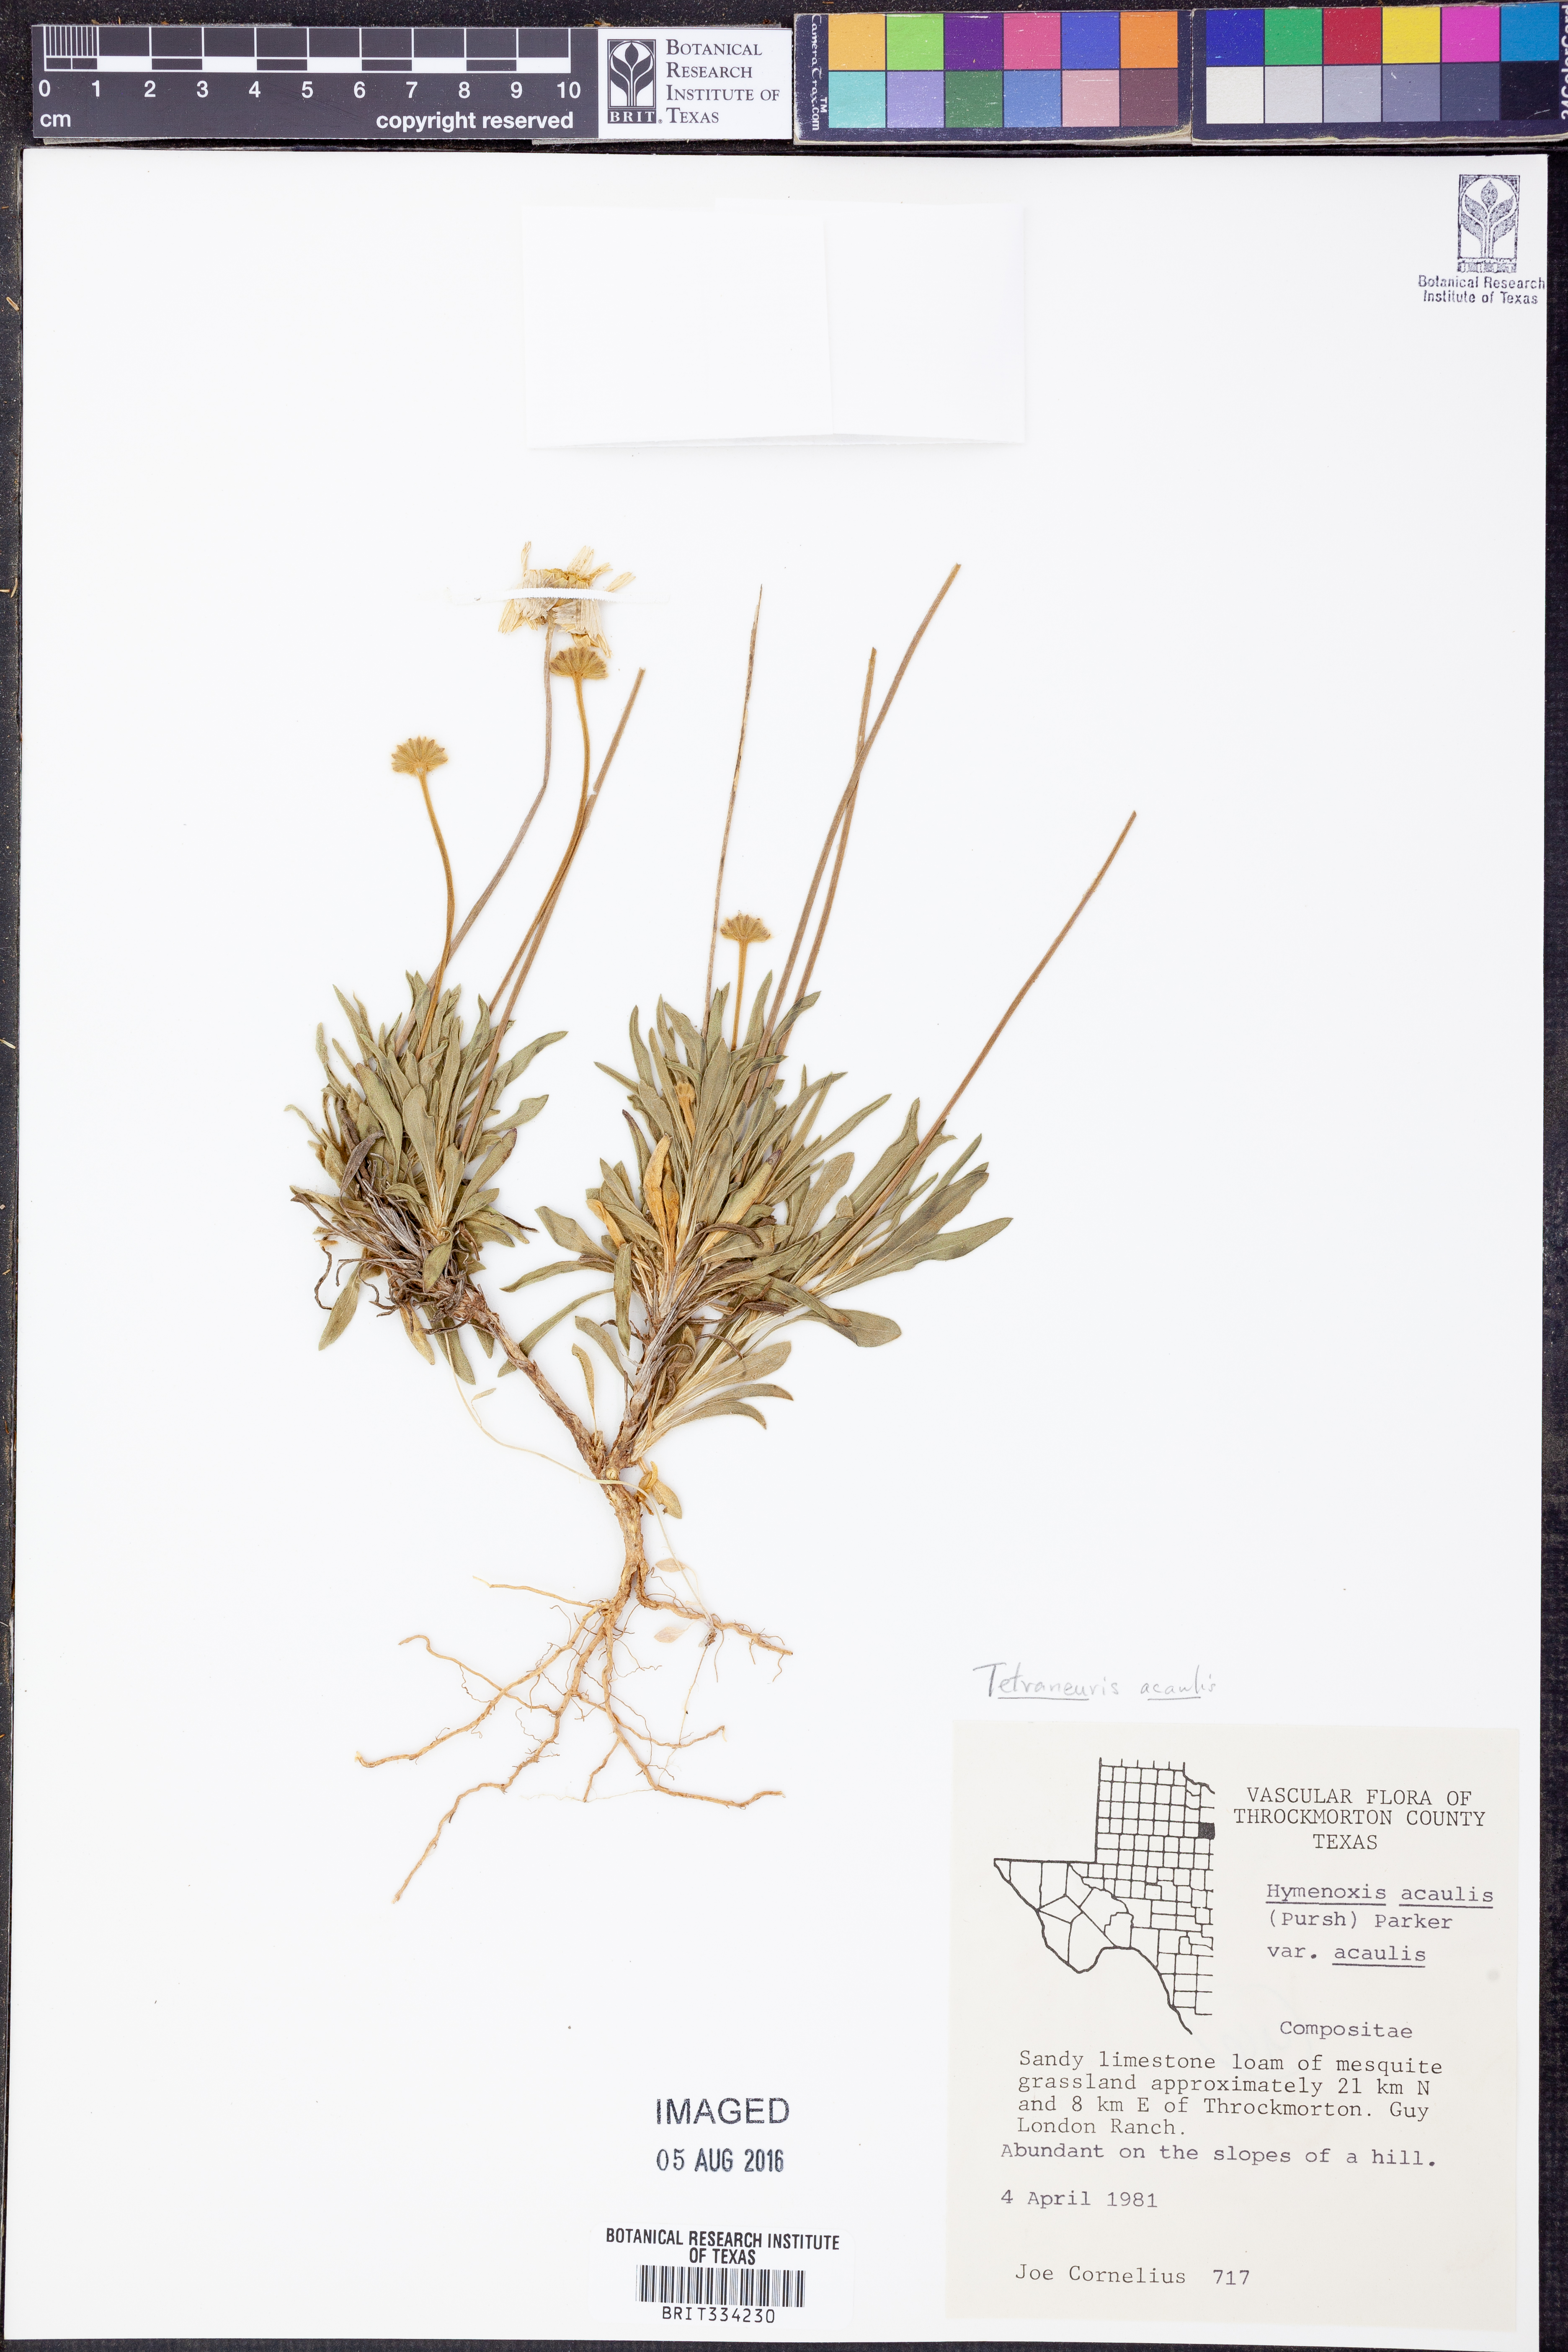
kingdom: Plantae
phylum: Tracheophyta
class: Magnoliopsida
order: Asterales
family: Asteraceae
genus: Tetraneuris
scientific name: Tetraneuris acaulis
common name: Butte marigold
